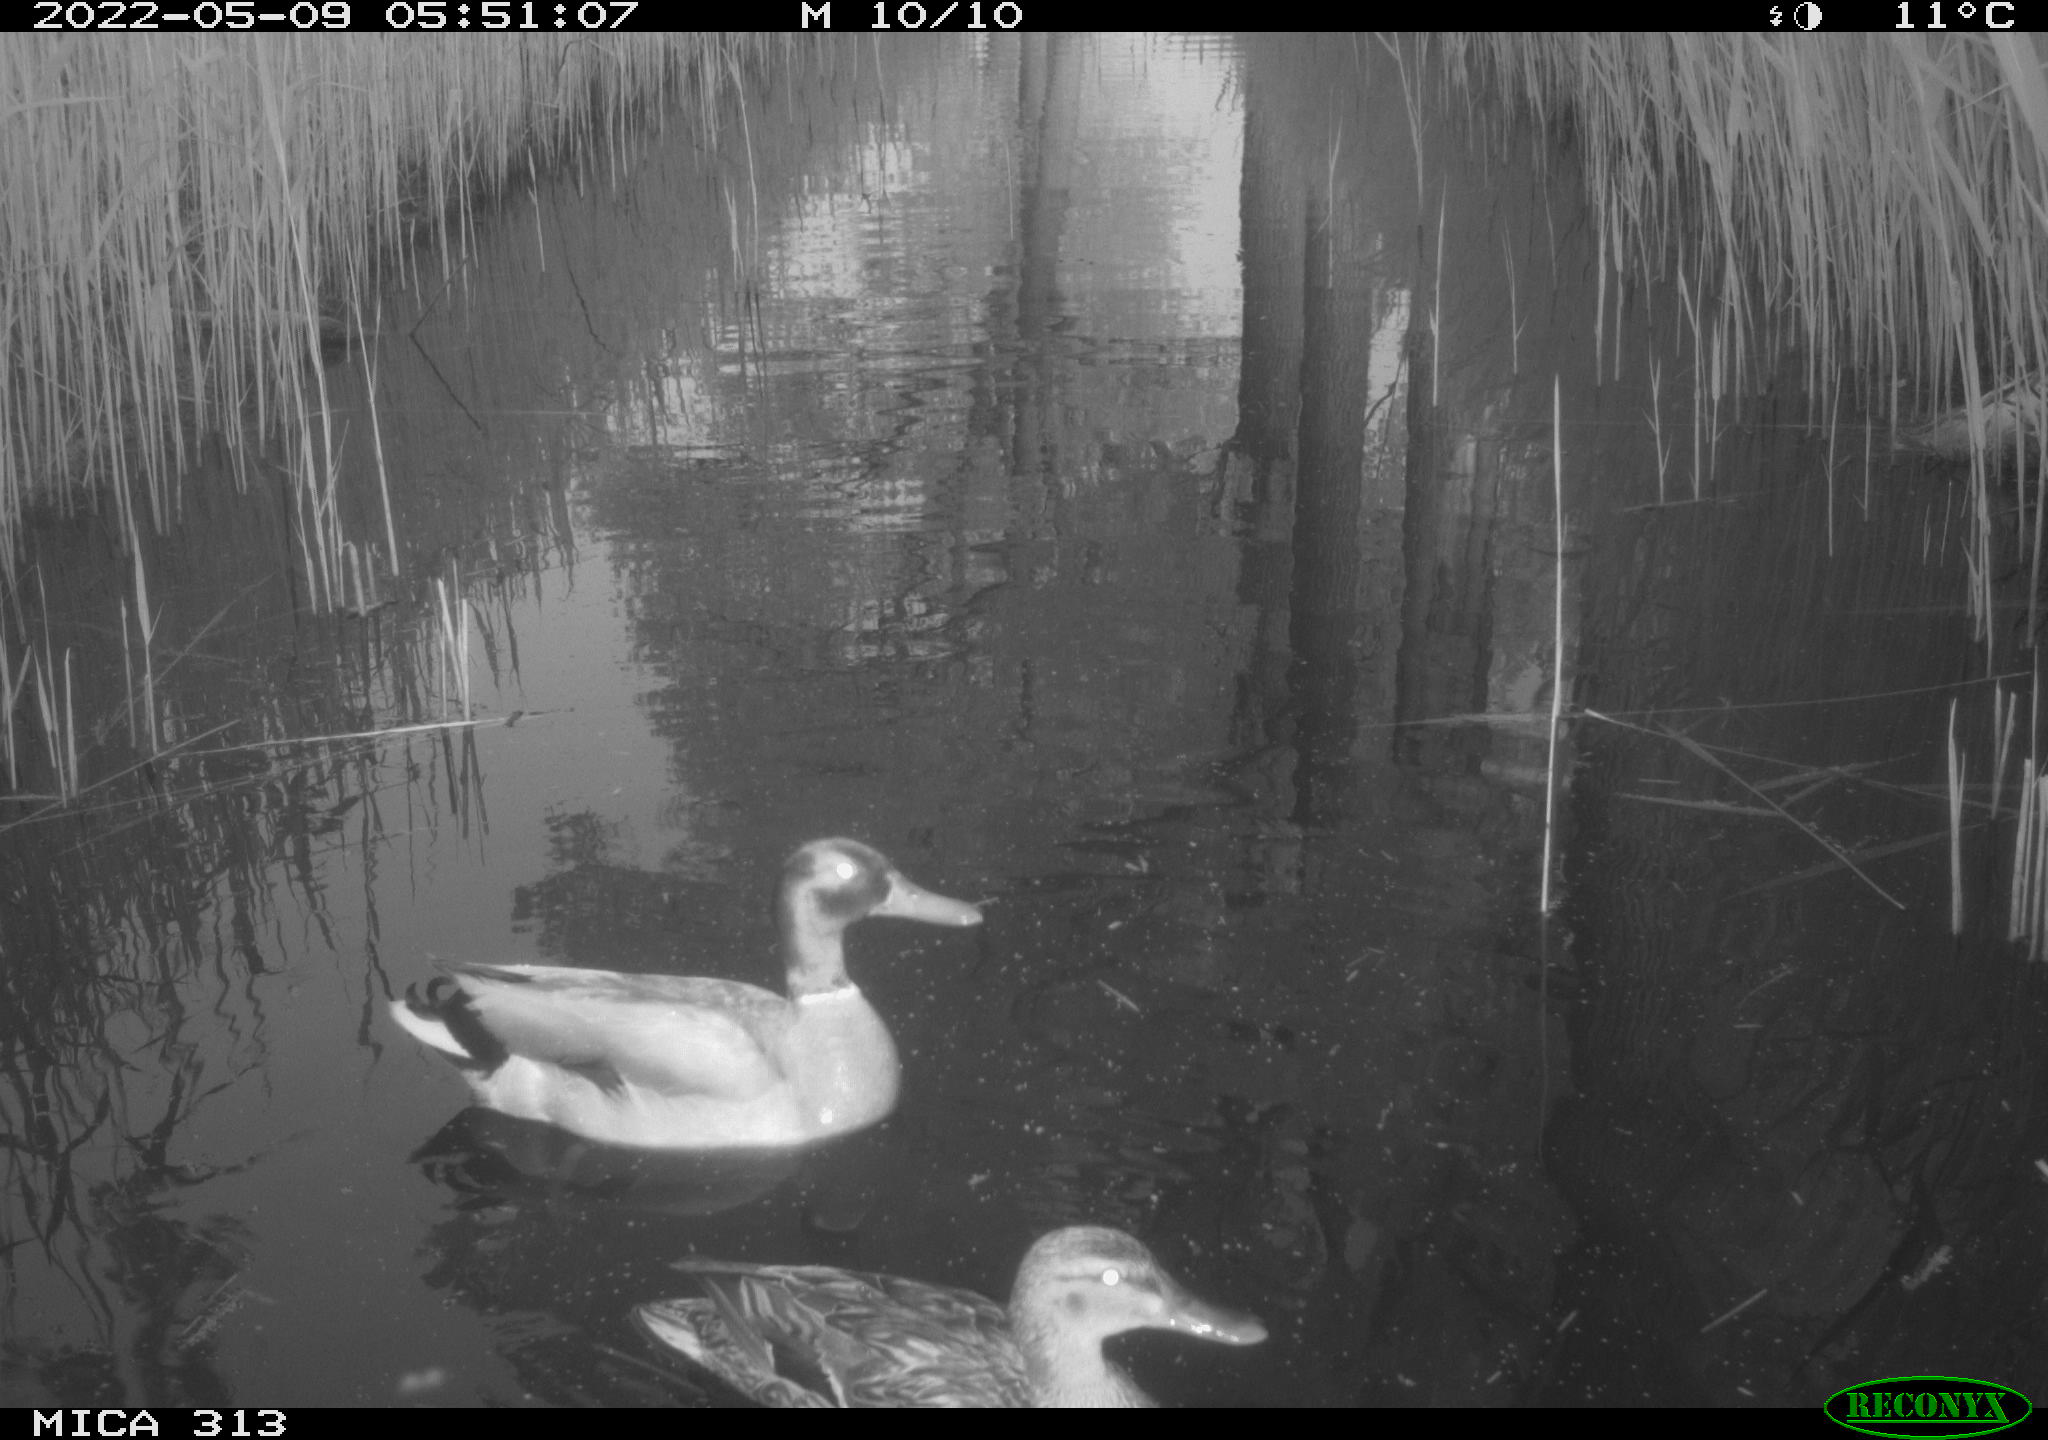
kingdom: Animalia
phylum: Chordata
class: Aves
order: Anseriformes
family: Anatidae
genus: Anas
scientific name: Anas platyrhynchos
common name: Mallard
